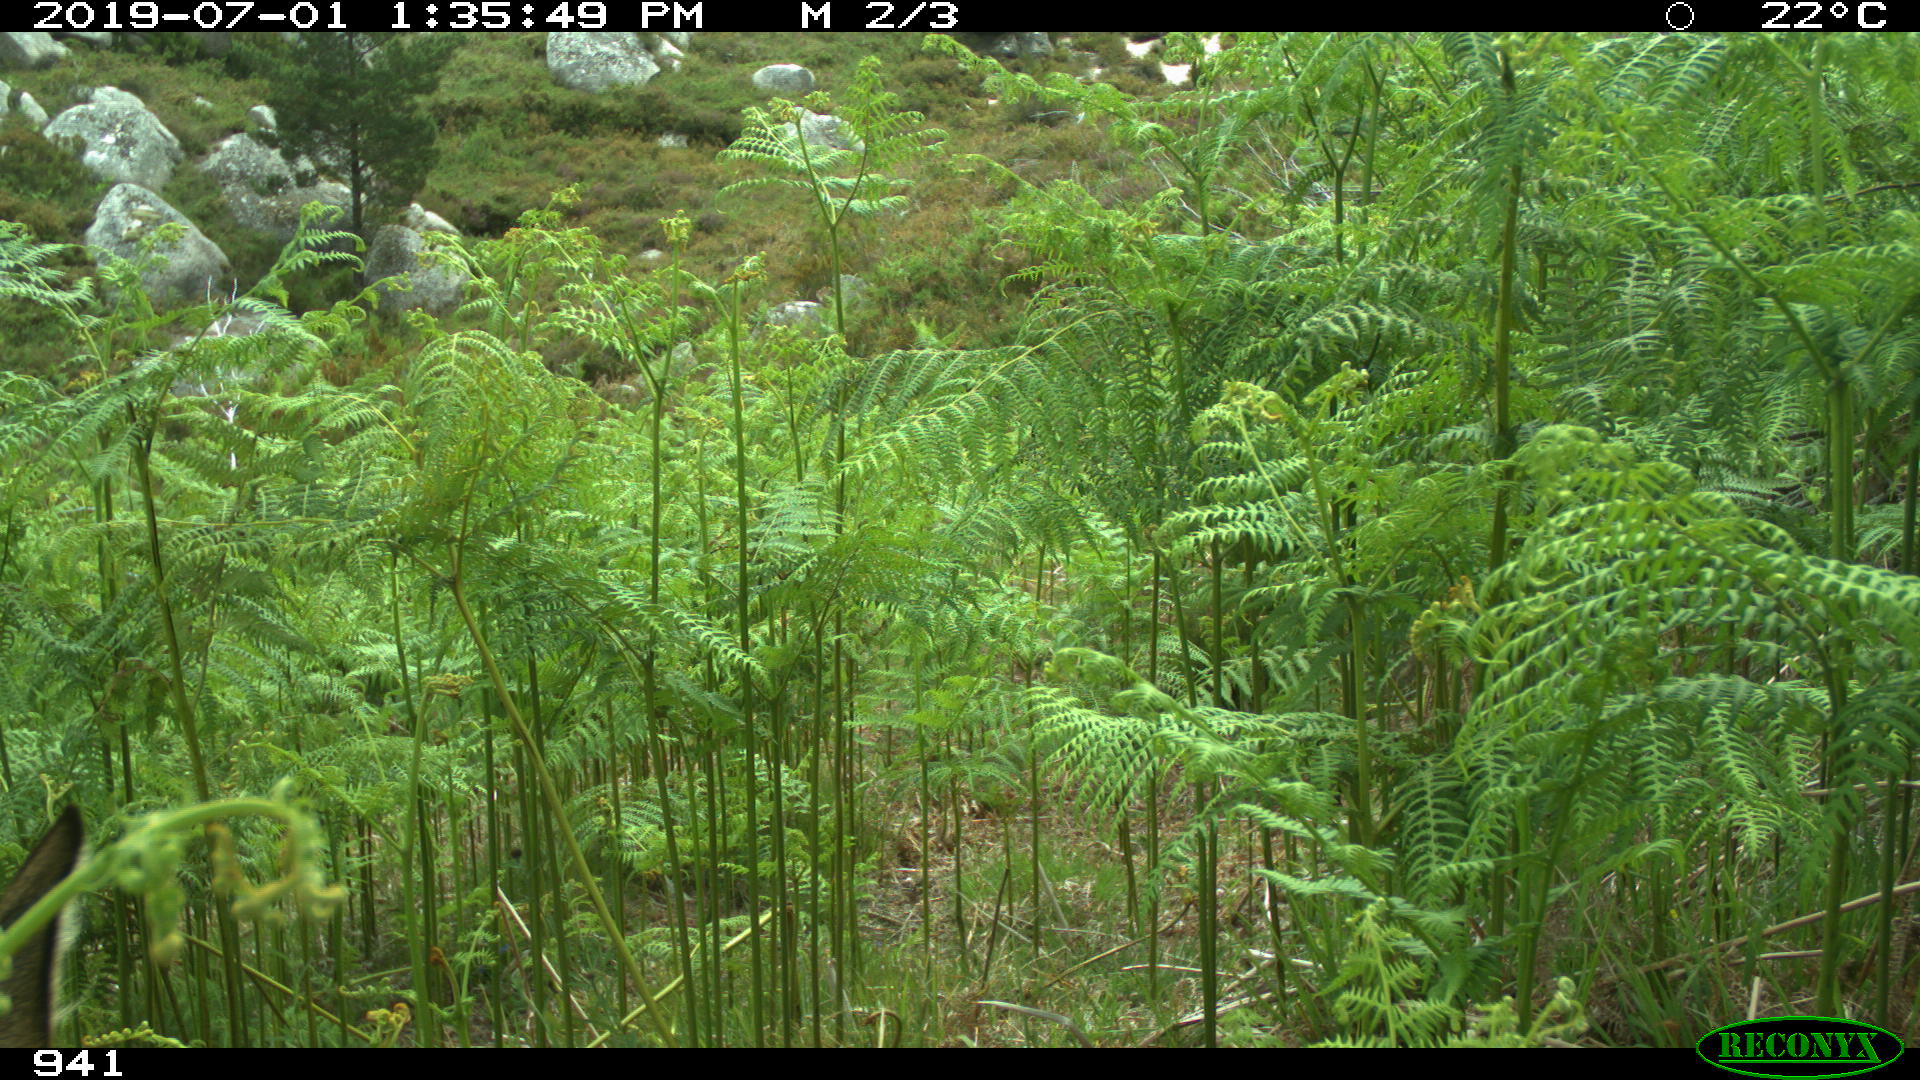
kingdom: Animalia
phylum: Chordata
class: Mammalia
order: Artiodactyla
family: Cervidae
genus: Capreolus
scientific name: Capreolus capreolus
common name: Western roe deer
